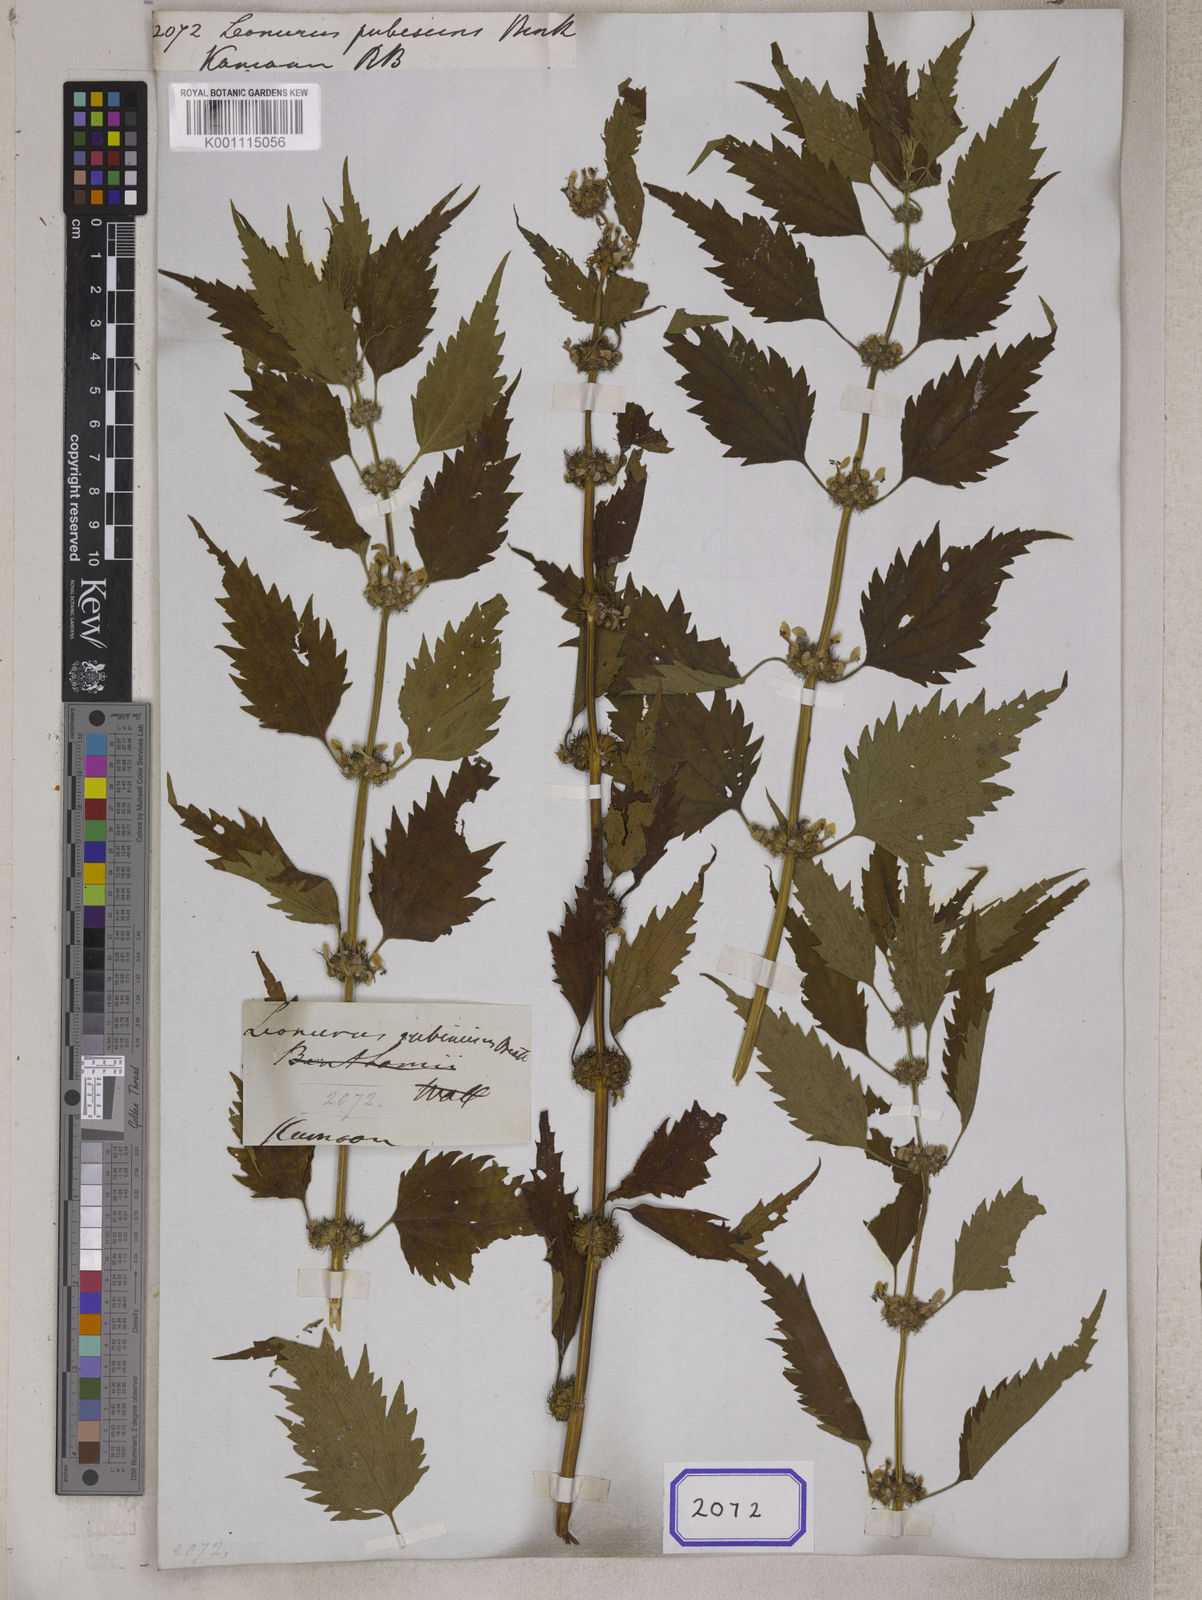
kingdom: Plantae
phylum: Tracheophyta
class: Magnoliopsida
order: Lamiales
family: Lamiaceae
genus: Leonurus
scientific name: Leonurus pubescens
